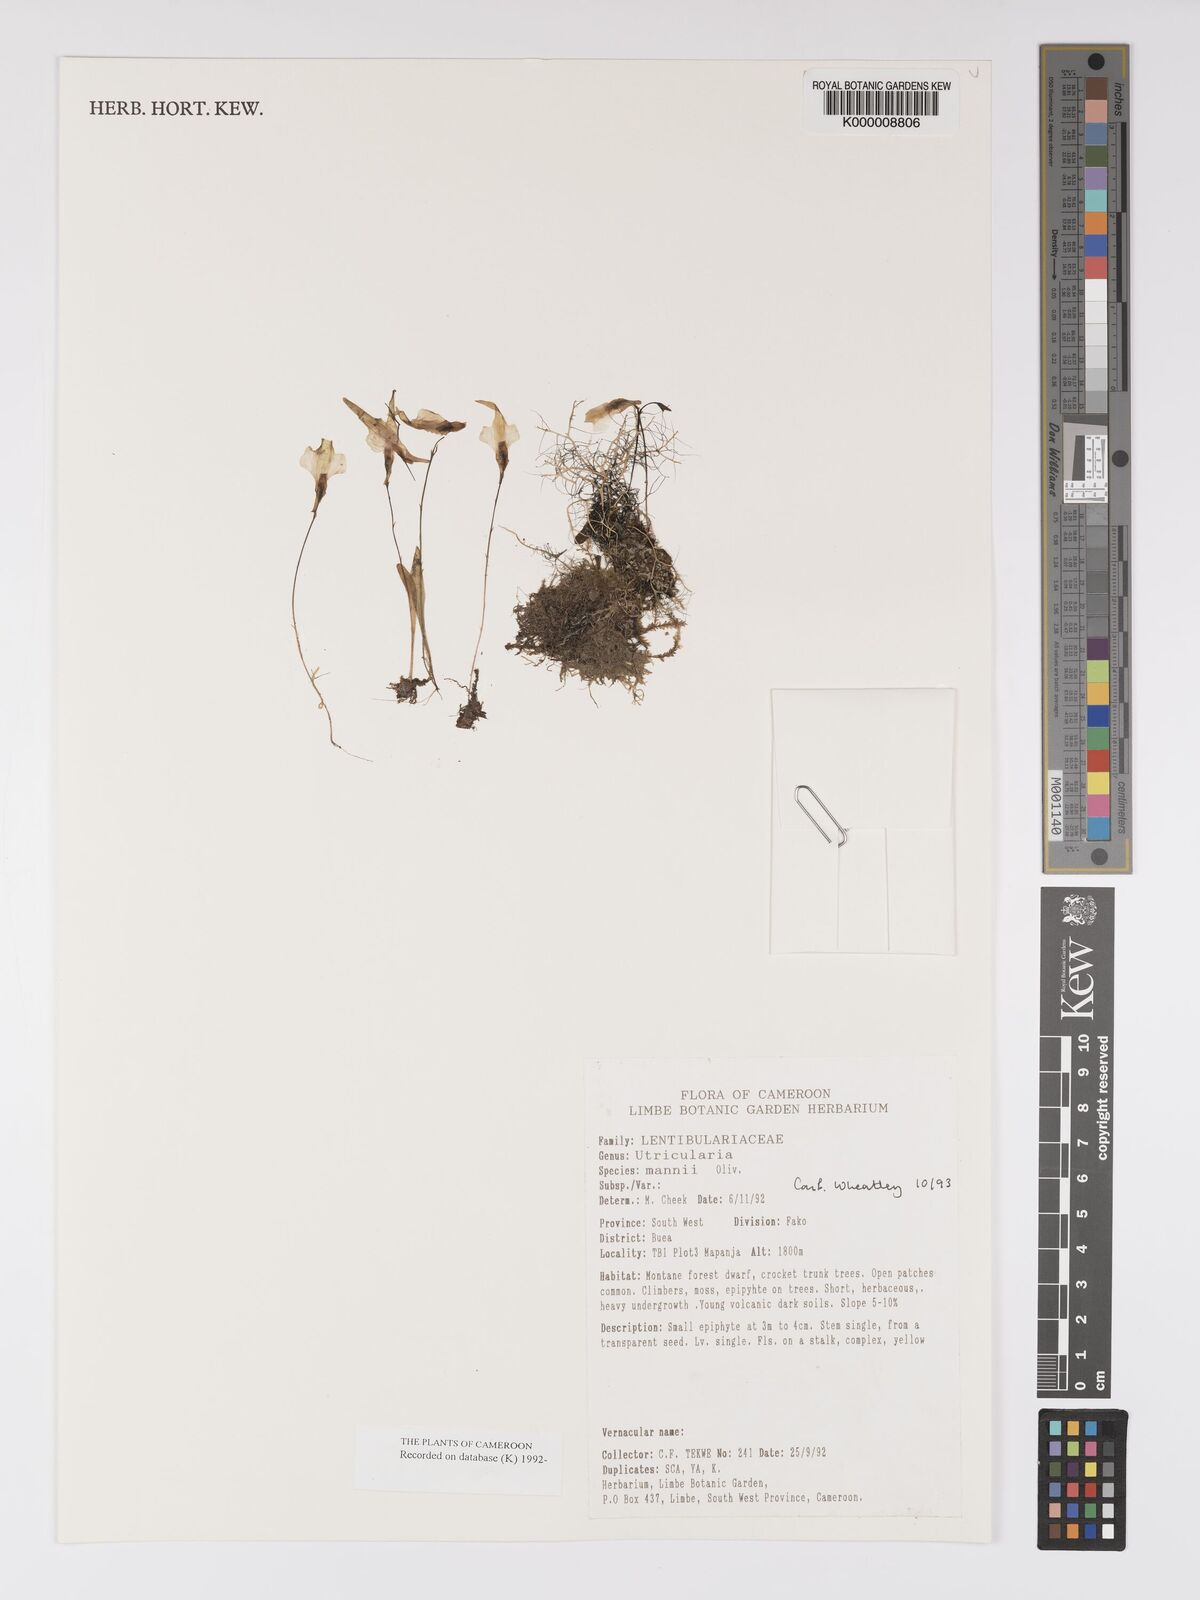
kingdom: Plantae
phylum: Tracheophyta
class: Magnoliopsida
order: Lamiales
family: Lentibulariaceae
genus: Utricularia
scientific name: Utricularia mannii
